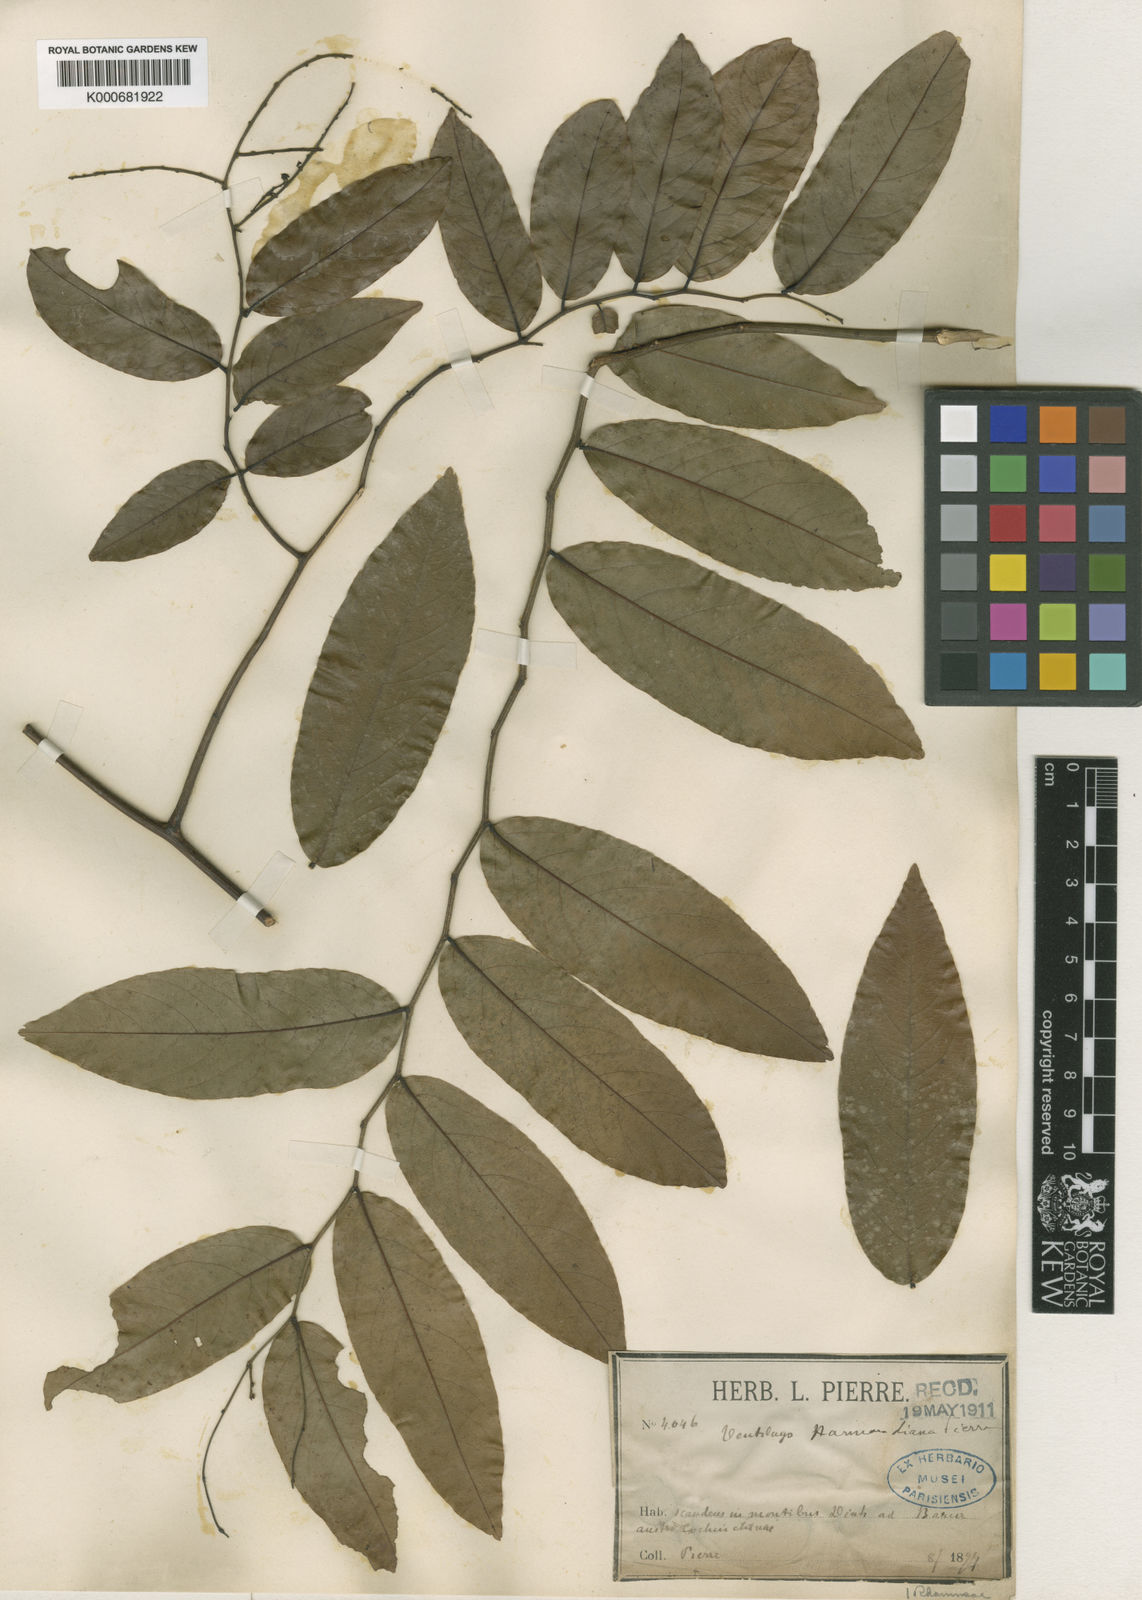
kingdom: Plantae
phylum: Tracheophyta
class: Magnoliopsida
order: Rosales
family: Rhamnaceae
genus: Ventilago
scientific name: Ventilago harmandiana
